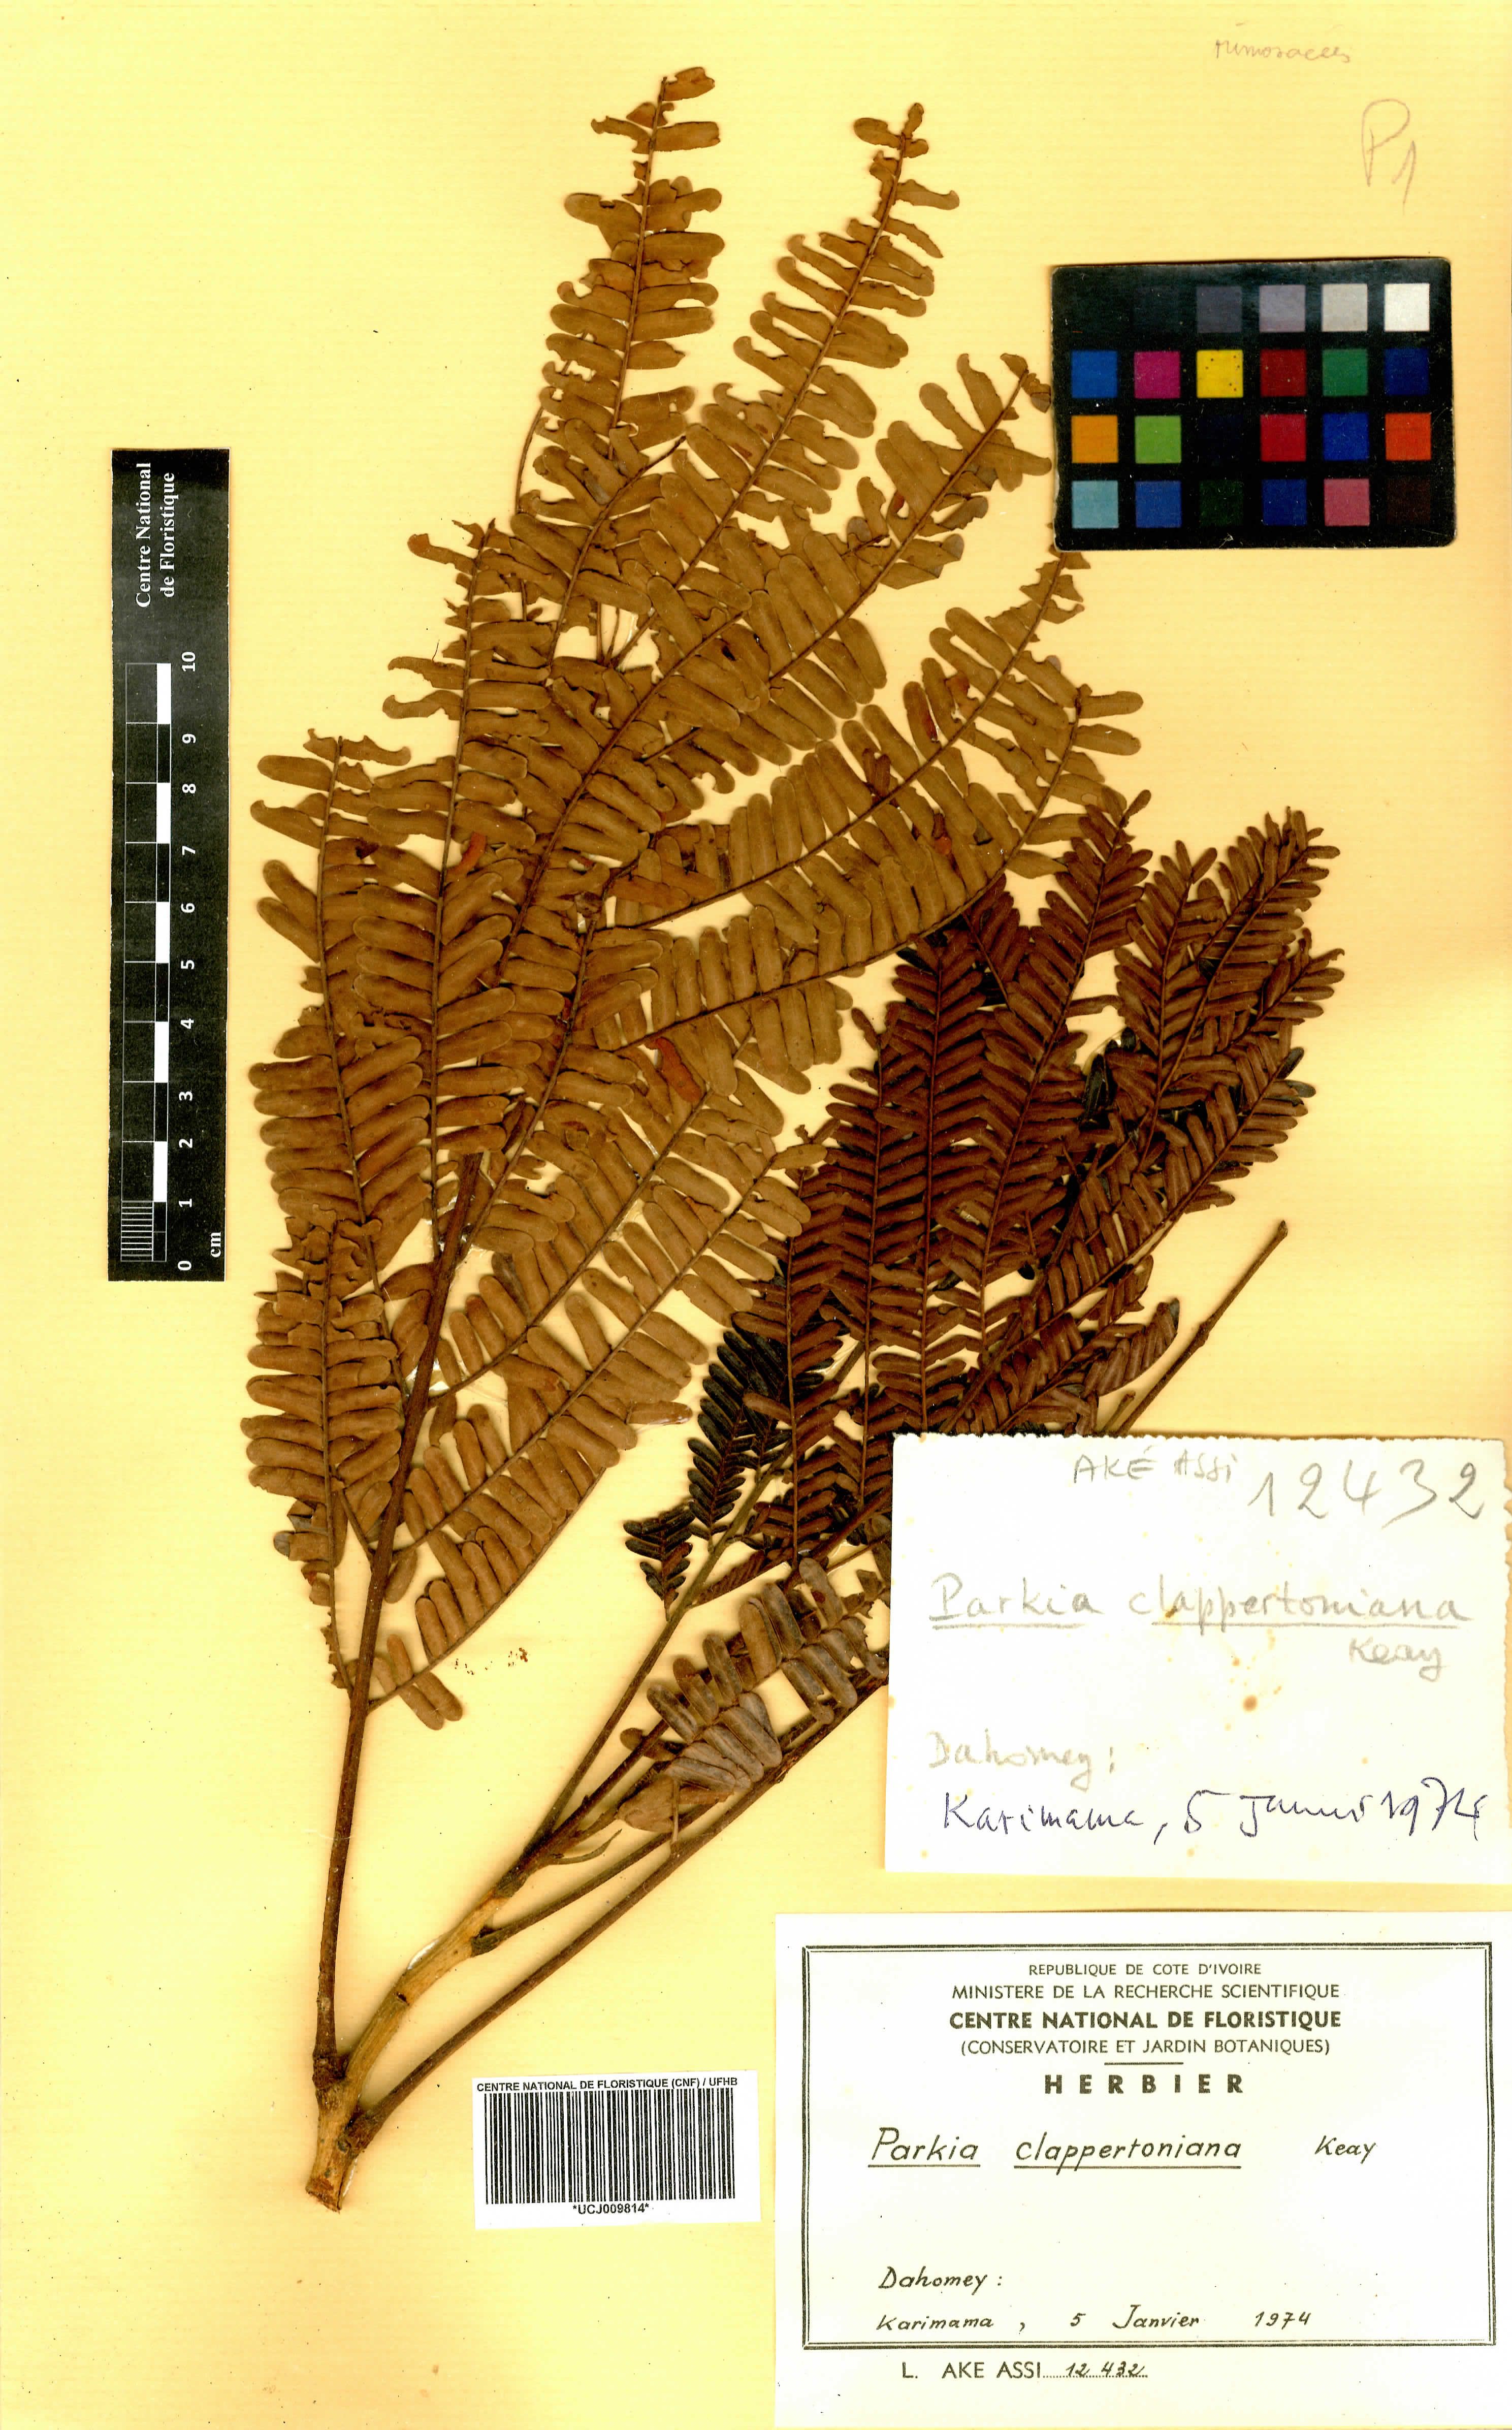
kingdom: Plantae
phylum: Tracheophyta
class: Magnoliopsida
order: Fabales
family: Fabaceae
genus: Parkia
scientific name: Parkia biglobosa
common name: African locust-bean
